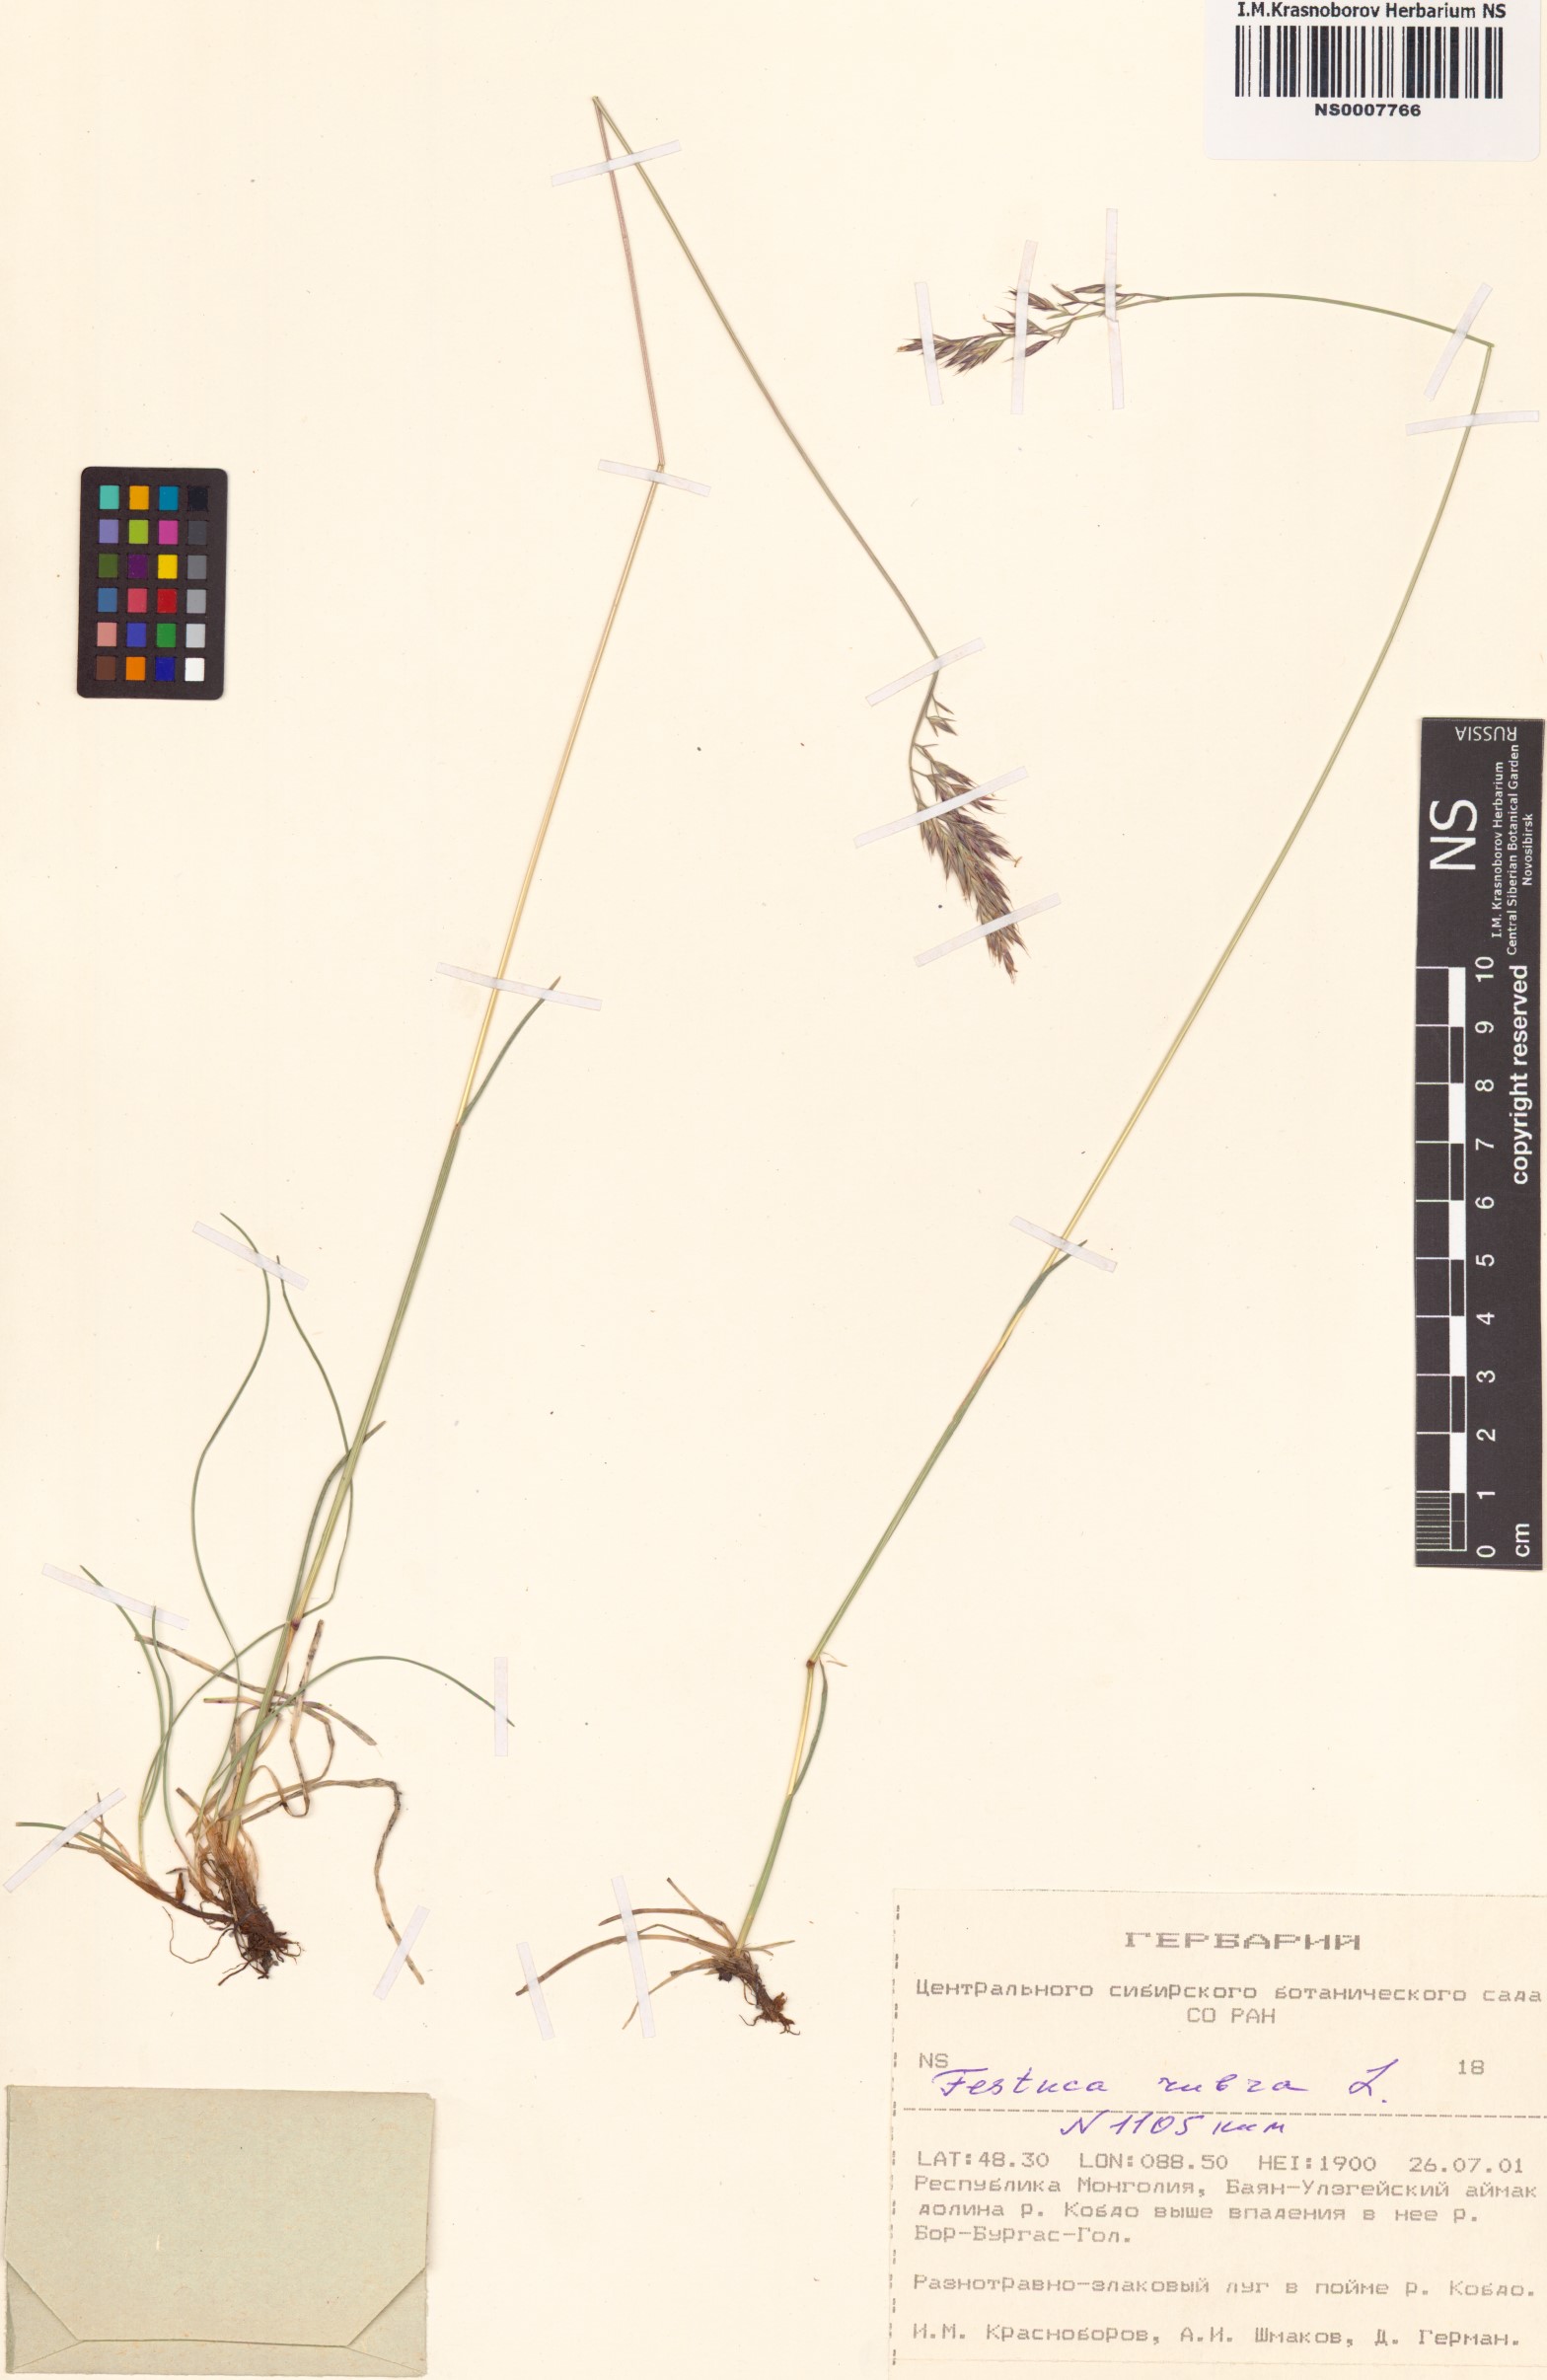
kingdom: Plantae
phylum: Tracheophyta
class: Liliopsida
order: Poales
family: Poaceae
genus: Festuca
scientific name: Festuca rubra
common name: Red fescue
